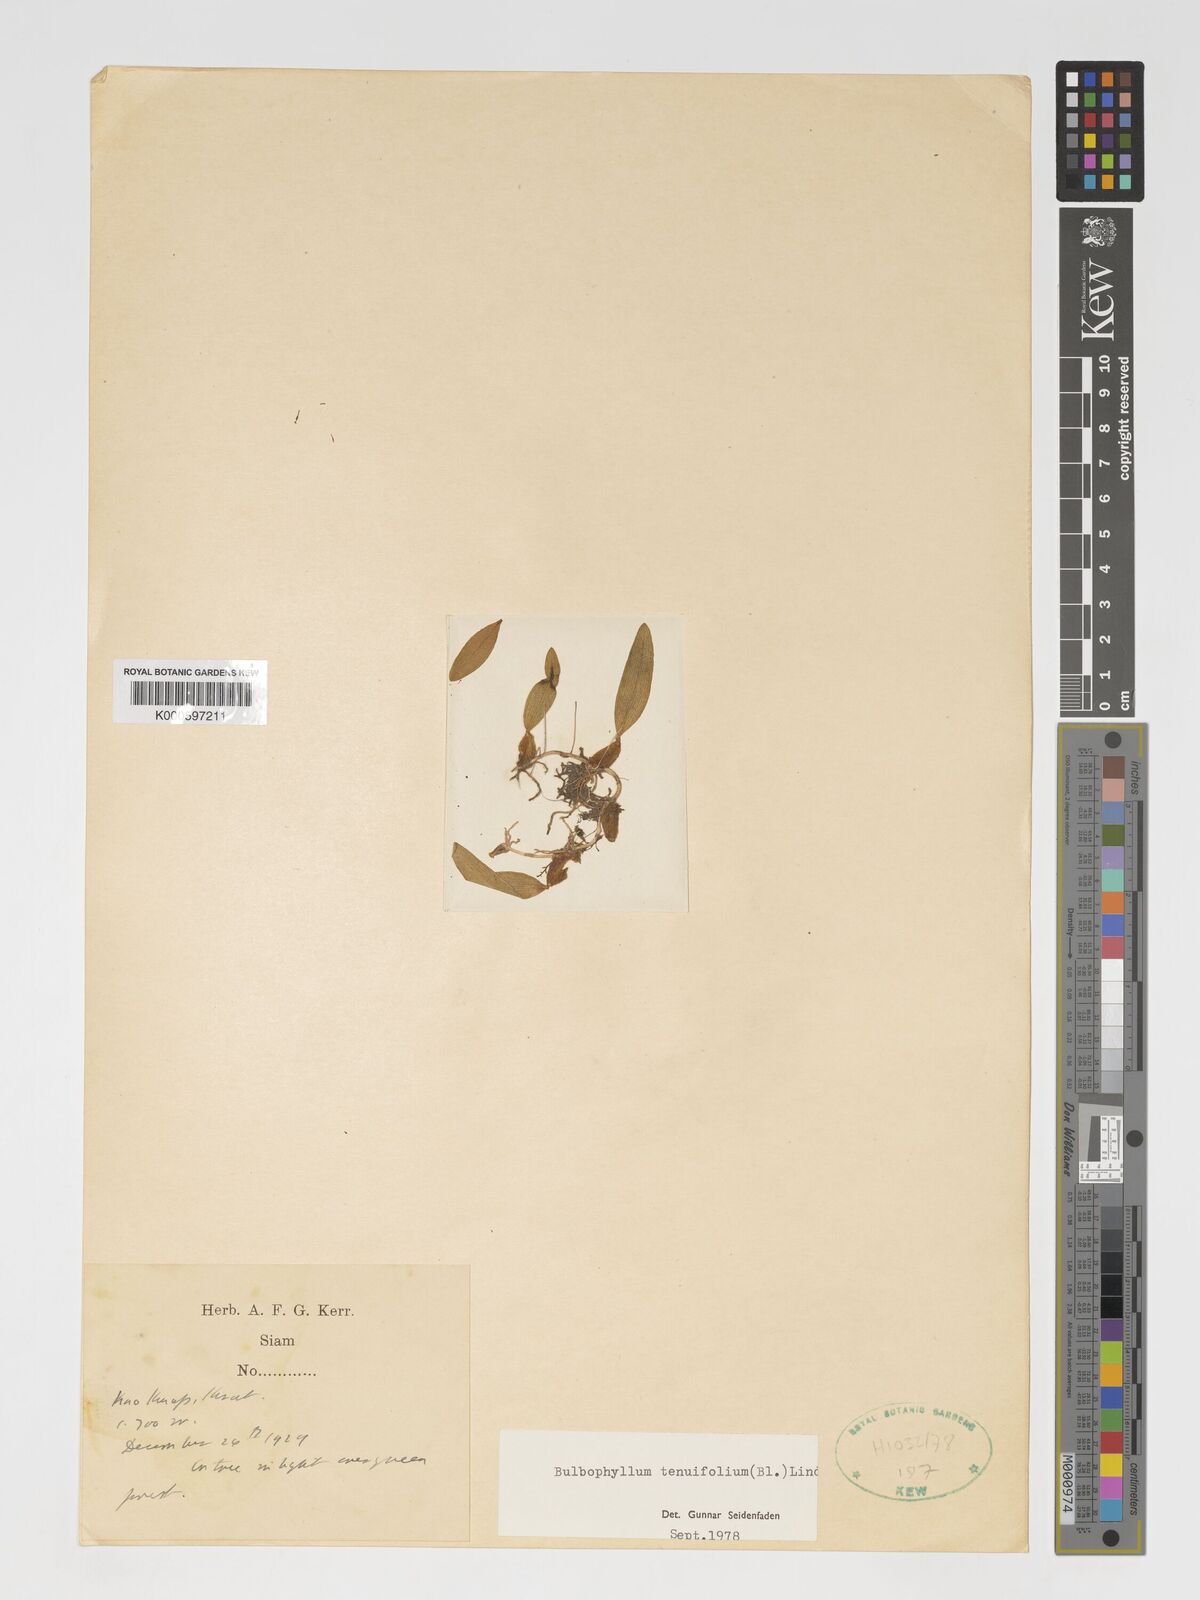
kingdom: Plantae
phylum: Tracheophyta
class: Liliopsida
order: Asparagales
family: Orchidaceae
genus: Bulbophyllum
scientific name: Bulbophyllum tenuifolium
